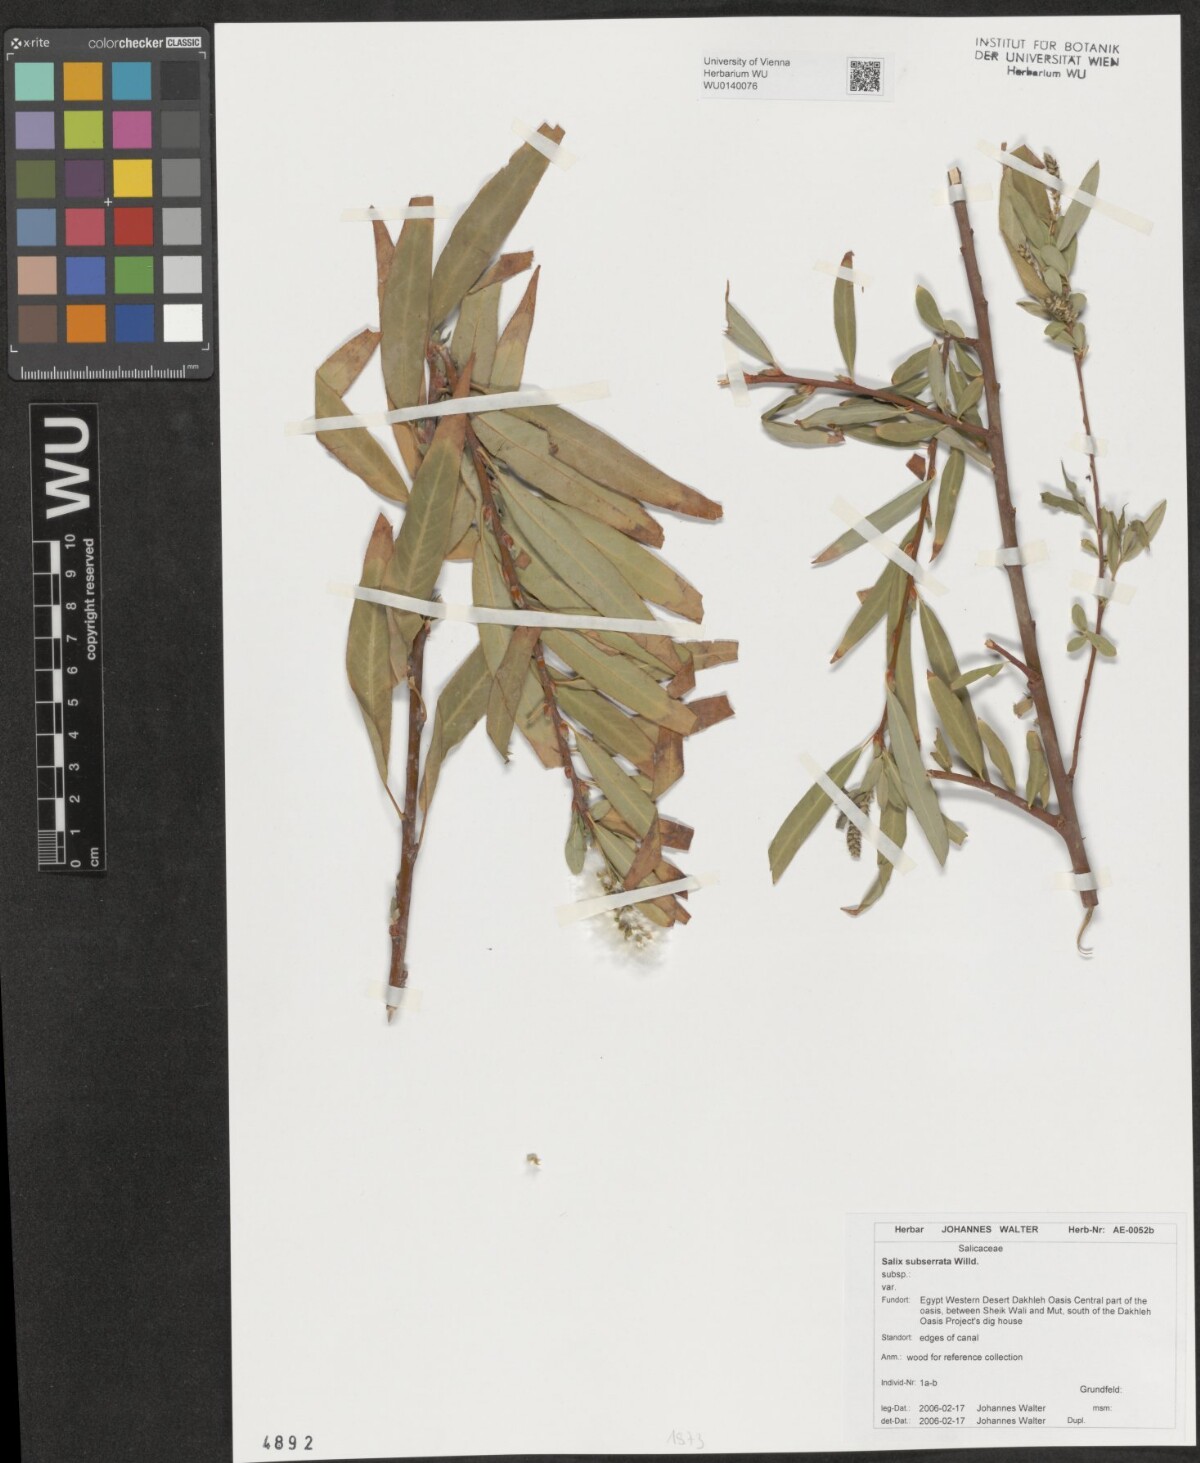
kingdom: Plantae
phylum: Tracheophyta
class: Magnoliopsida
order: Malpighiales
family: Salicaceae
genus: Salix
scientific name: Salix mucronata
